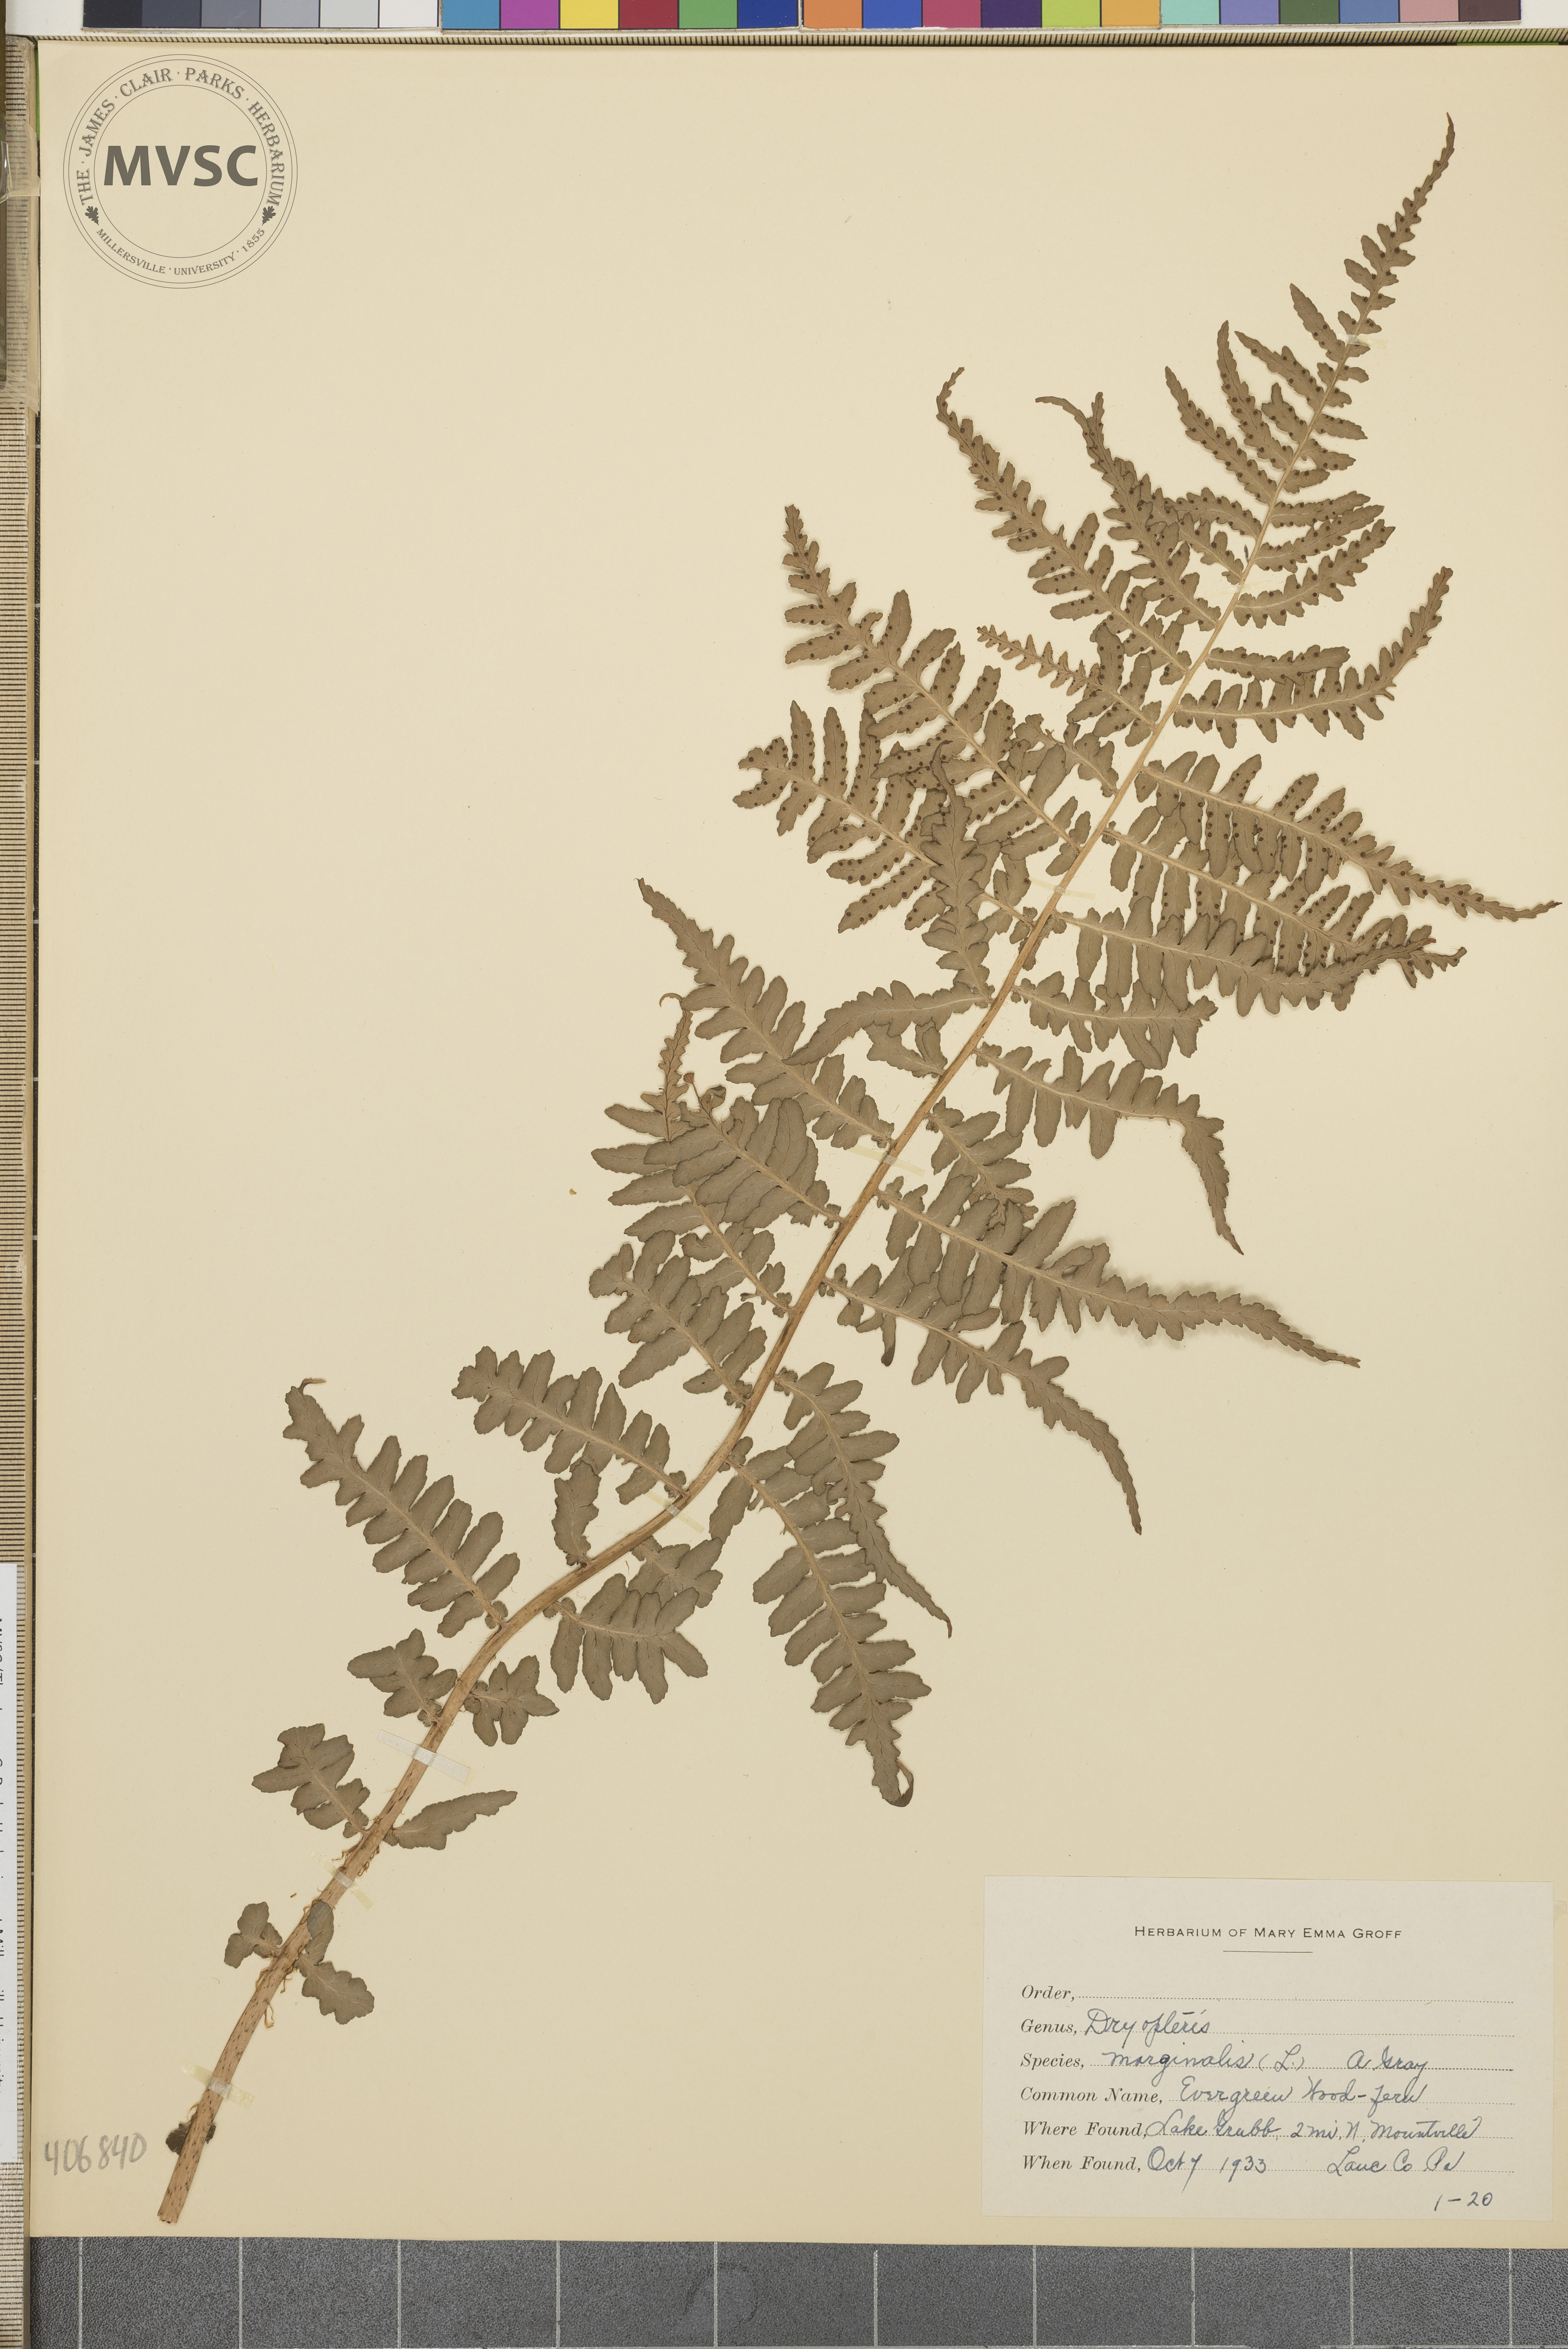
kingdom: Plantae
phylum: Tracheophyta
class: Polypodiopsida
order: Polypodiales
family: Dryopteridaceae
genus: Dryopteris
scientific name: Dryopteris marginalis
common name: Marginal wood fern
